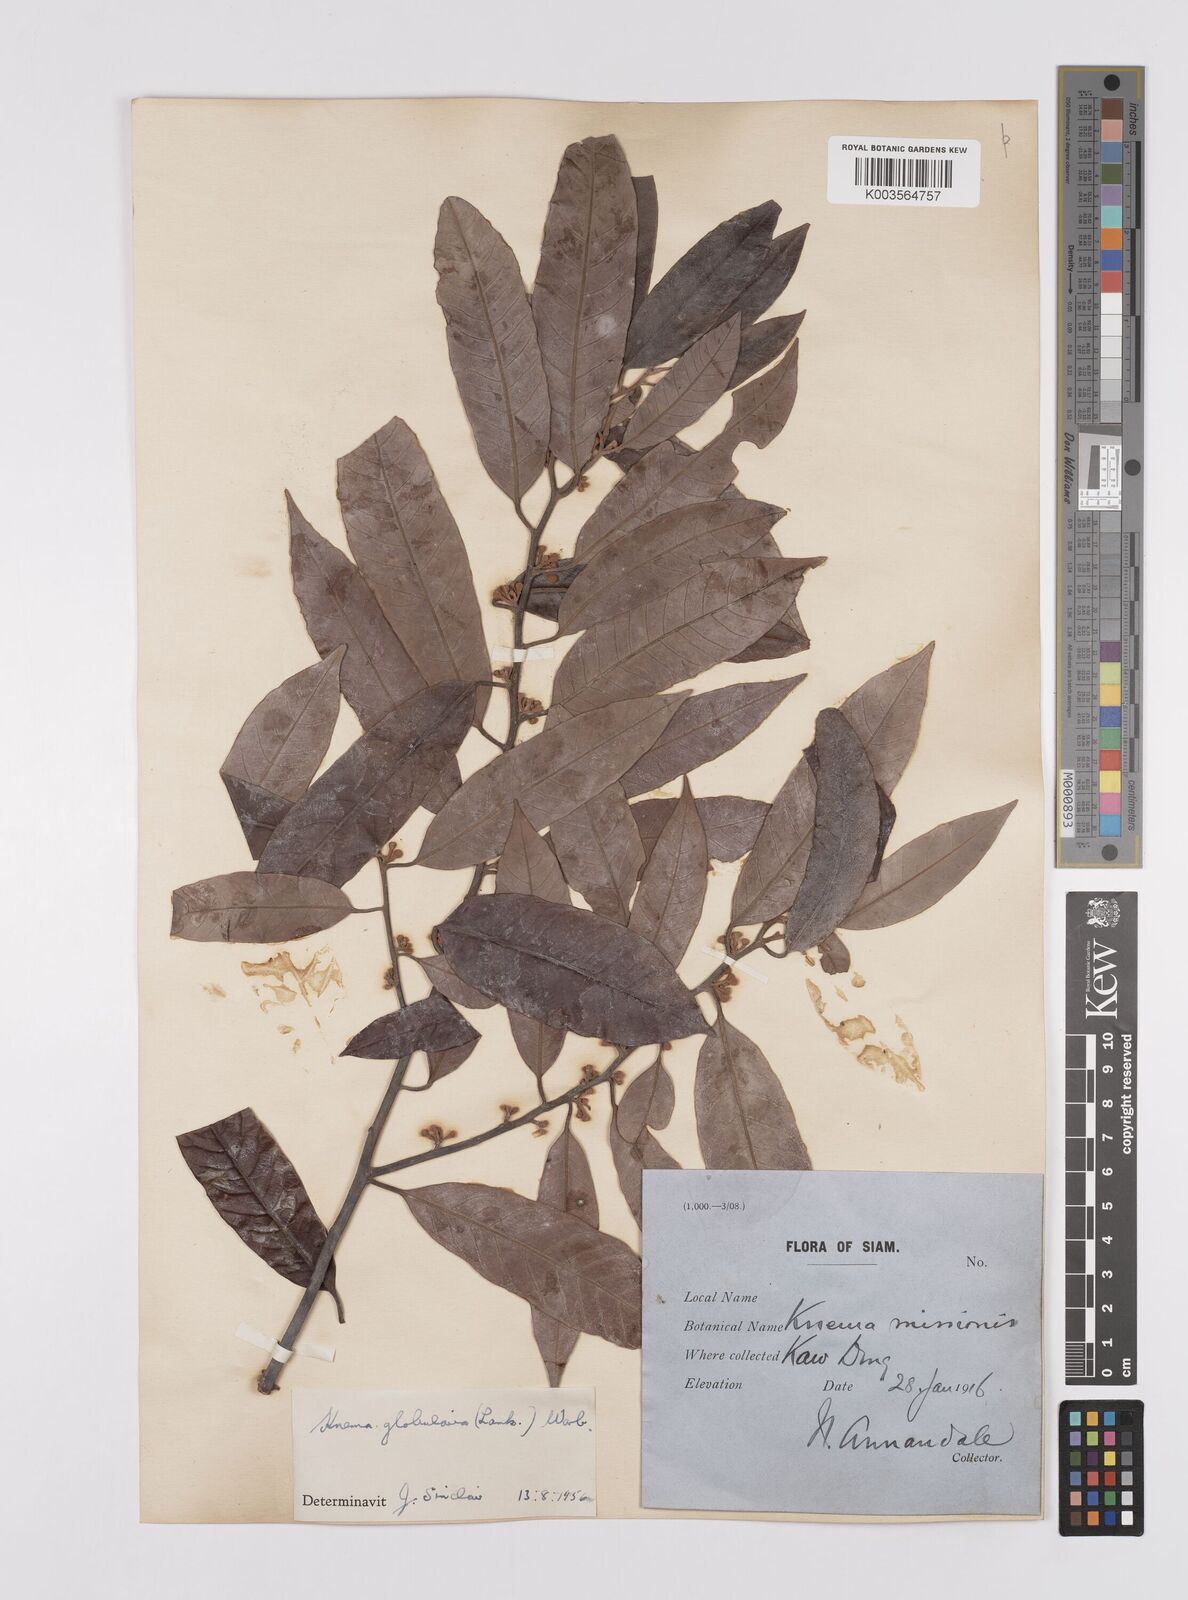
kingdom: Plantae
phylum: Tracheophyta
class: Magnoliopsida
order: Magnoliales
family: Myristicaceae
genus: Knema
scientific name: Knema globularia
